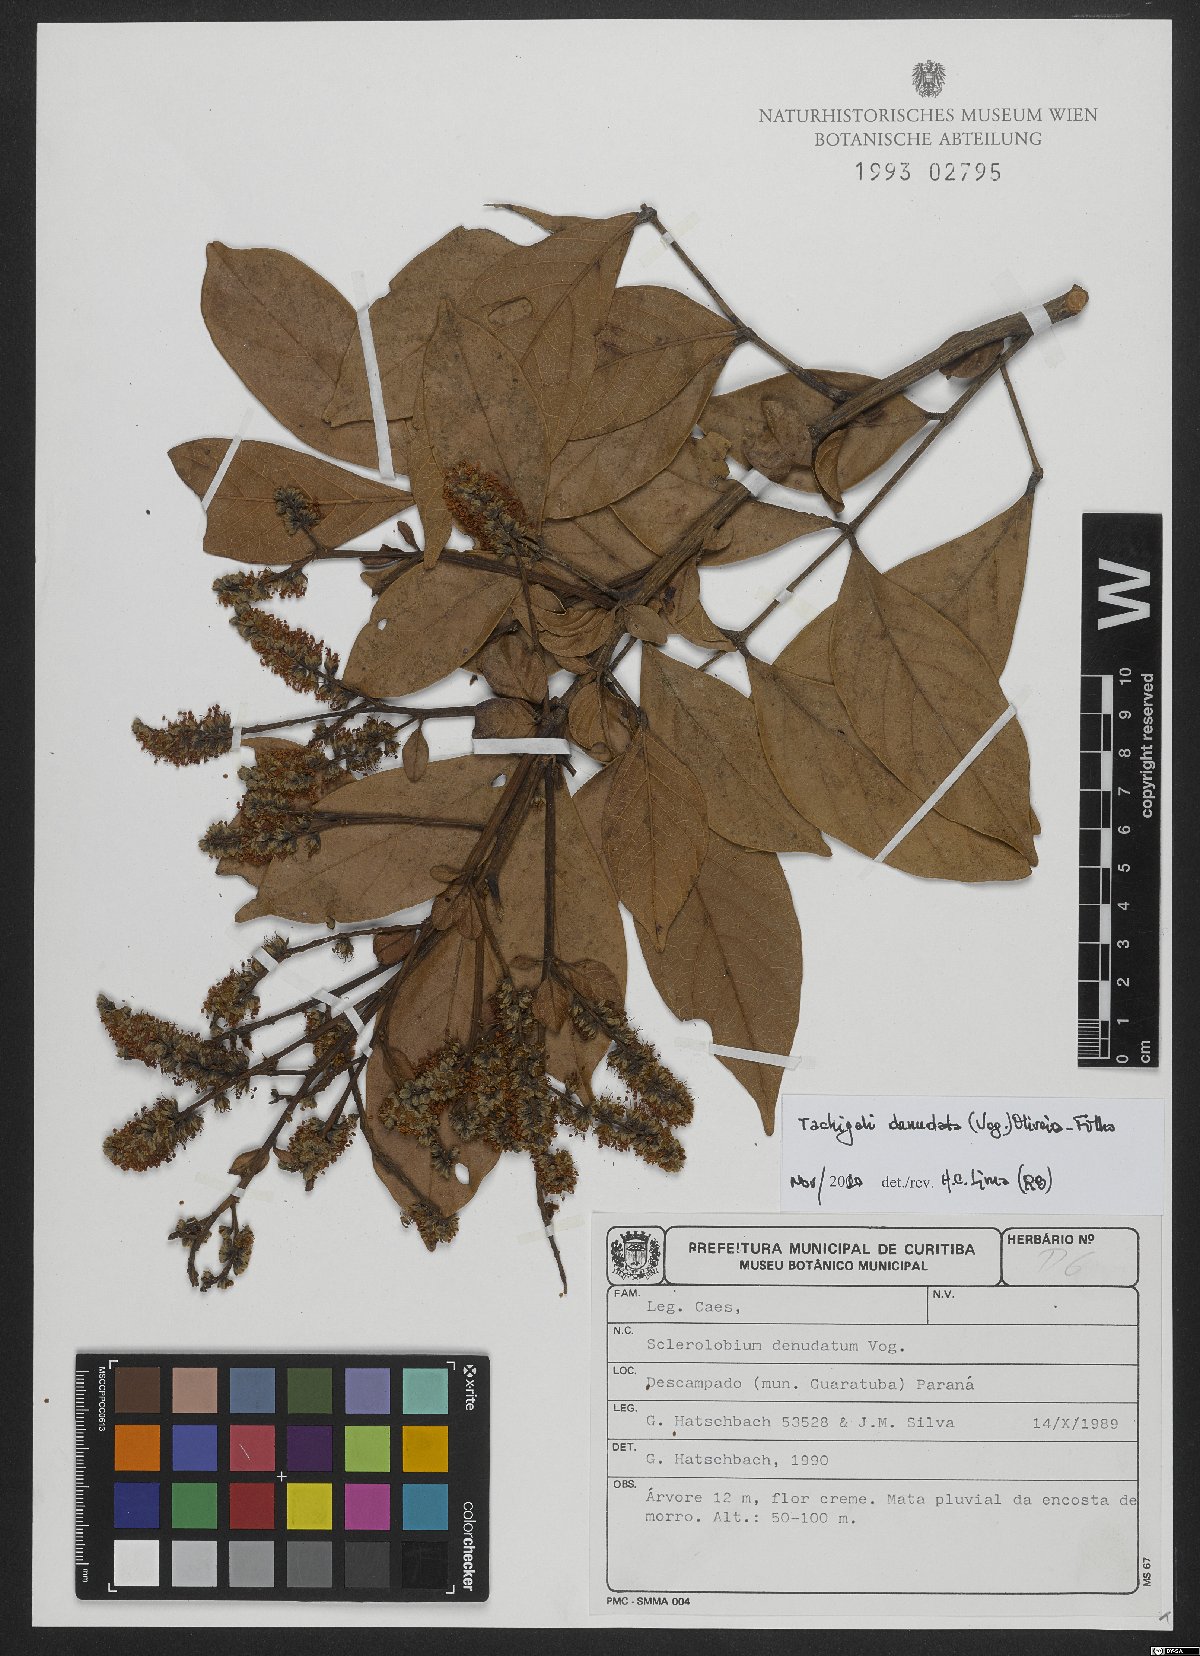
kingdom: Plantae
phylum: Tracheophyta
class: Magnoliopsida
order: Fabales
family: Fabaceae
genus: Tachigali
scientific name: Tachigali denudata
